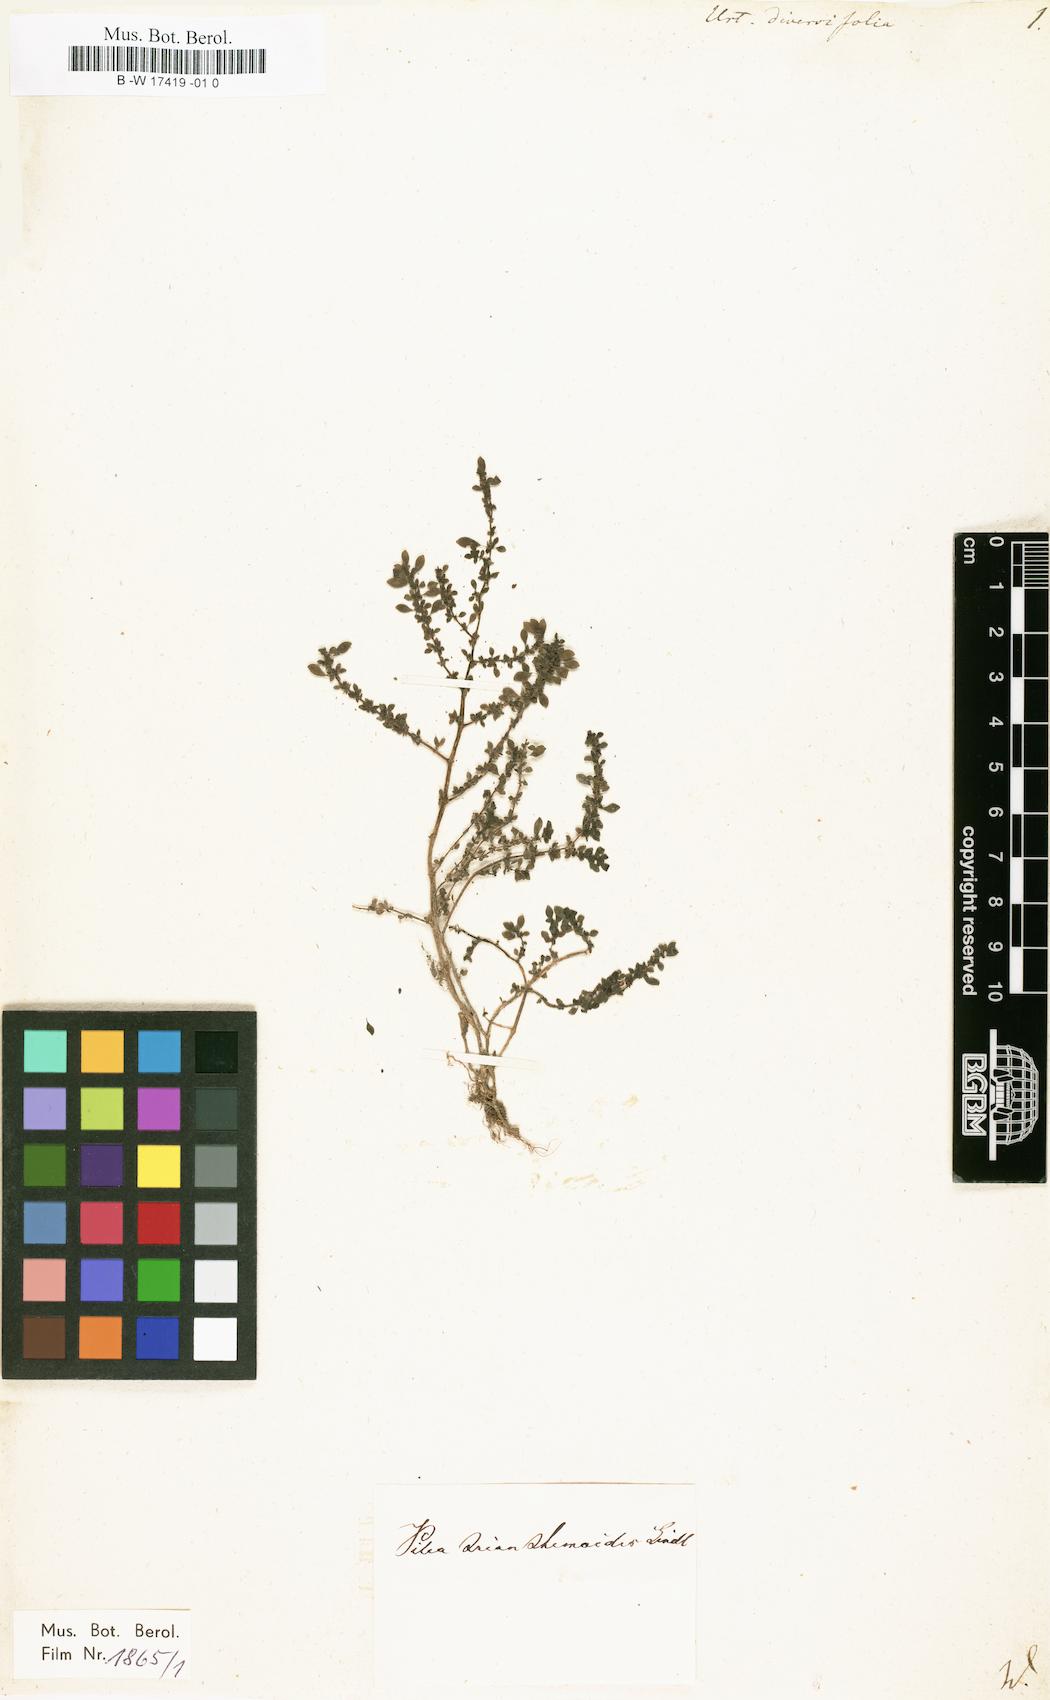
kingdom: Plantae
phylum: Tracheophyta
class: Magnoliopsida
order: Rosales
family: Urticaceae
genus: Girardinia
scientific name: Girardinia diversifolia
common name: Himalayan-nettle
